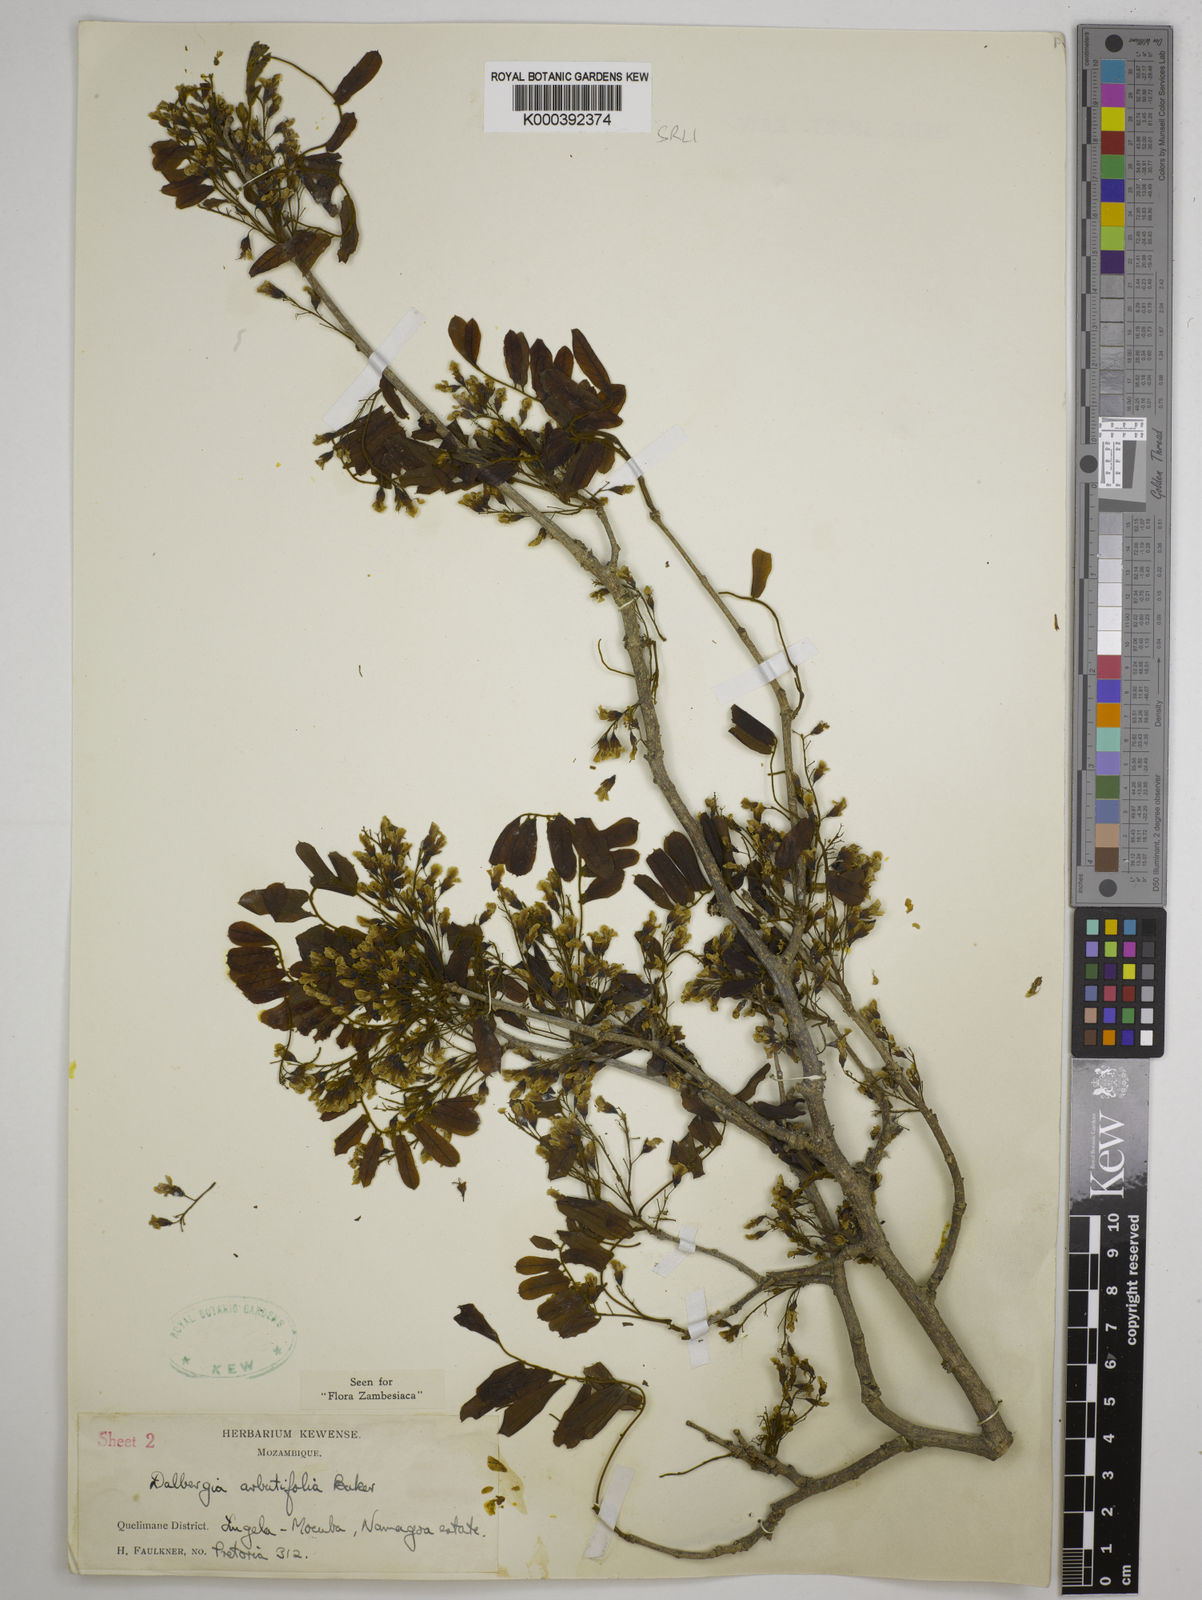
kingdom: Plantae
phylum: Tracheophyta
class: Magnoliopsida
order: Fabales
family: Fabaceae
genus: Dalbergia
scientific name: Dalbergia arbutifolia
